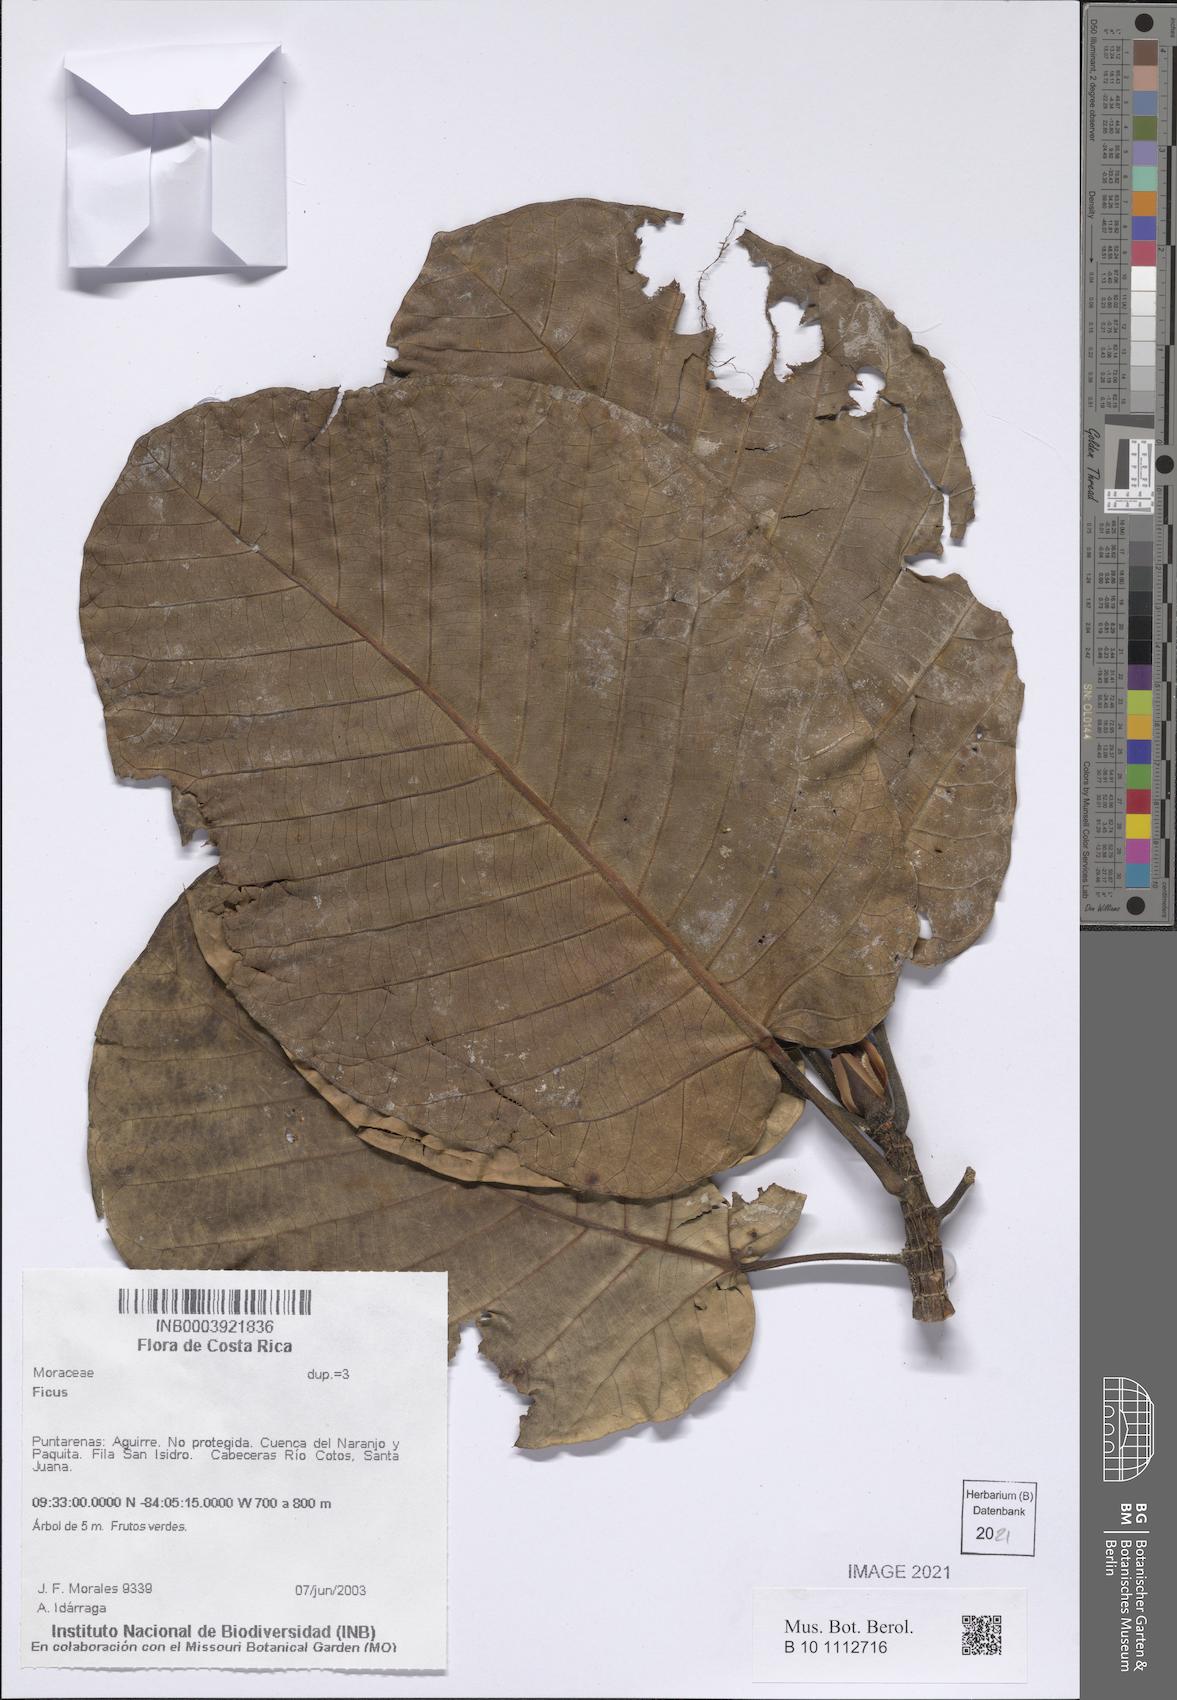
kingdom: Plantae
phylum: Tracheophyta
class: Magnoliopsida
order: Rosales
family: Moraceae
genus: Ficus
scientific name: Ficus
